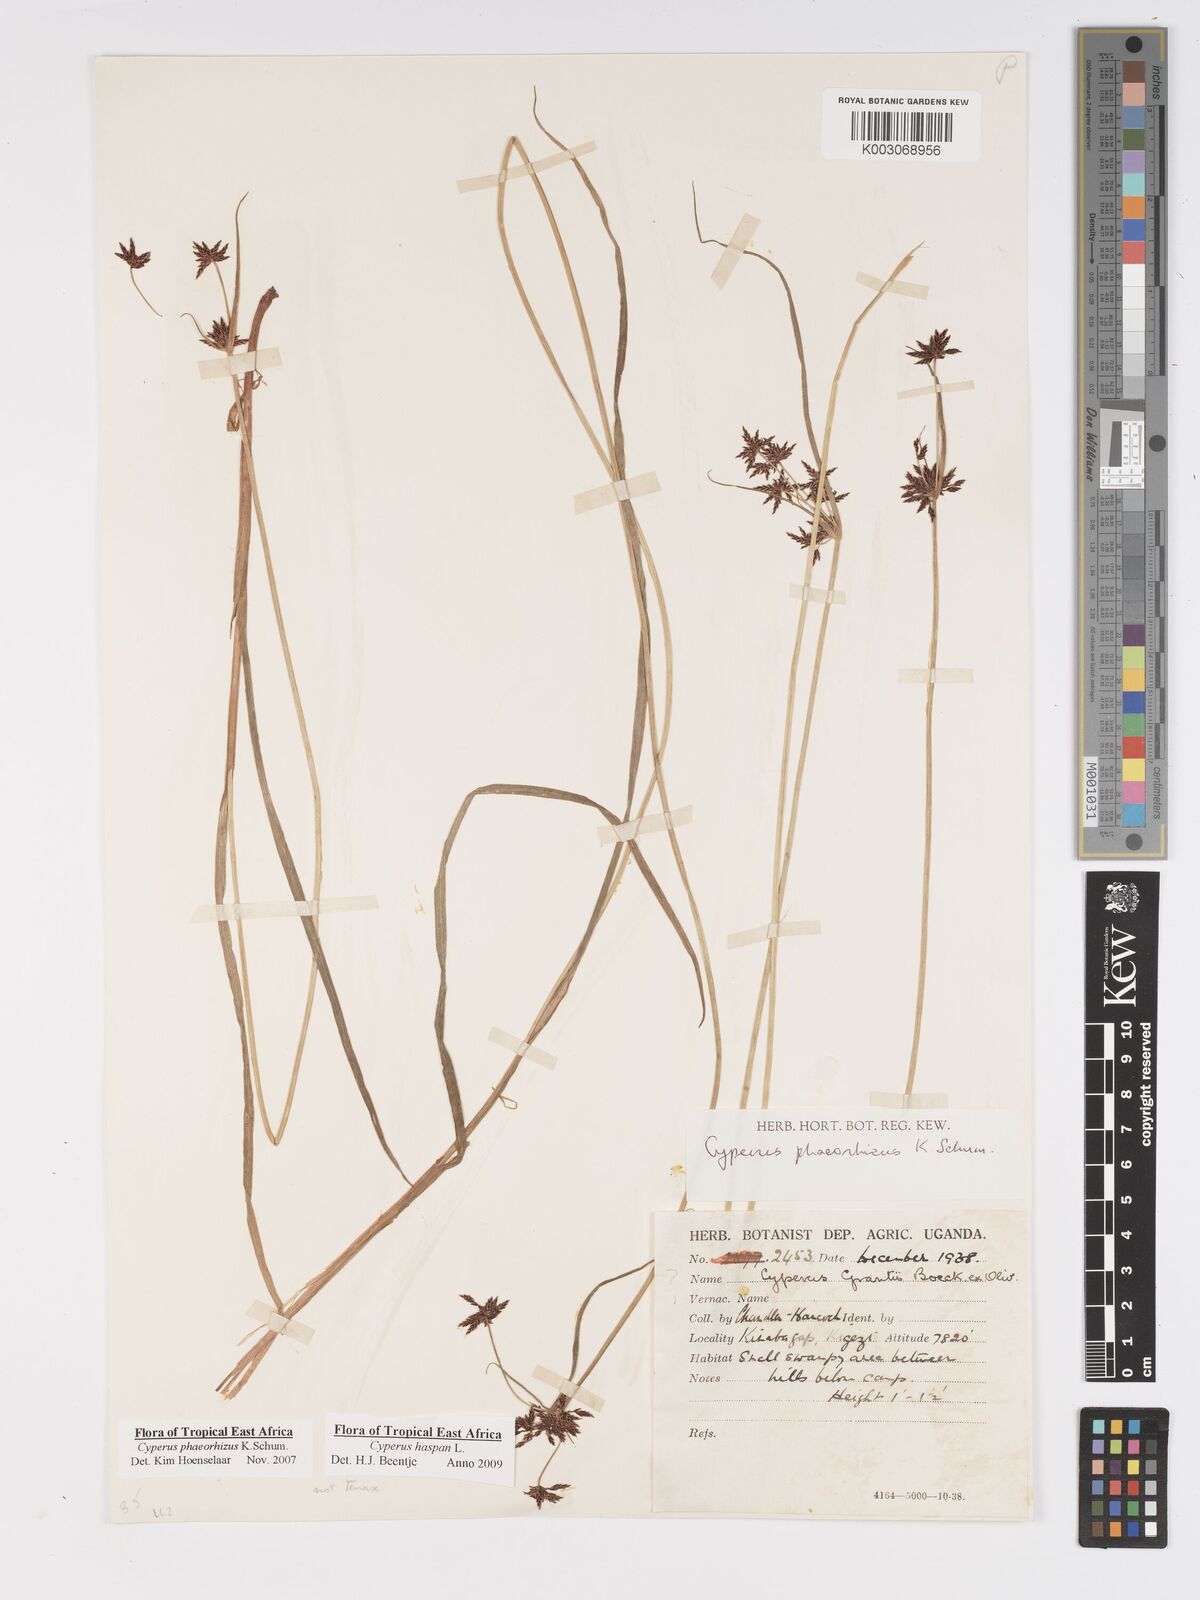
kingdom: Plantae
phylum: Tracheophyta
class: Liliopsida
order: Poales
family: Cyperaceae
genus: Cyperus
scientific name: Cyperus haspan
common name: Haspan flatsedge
